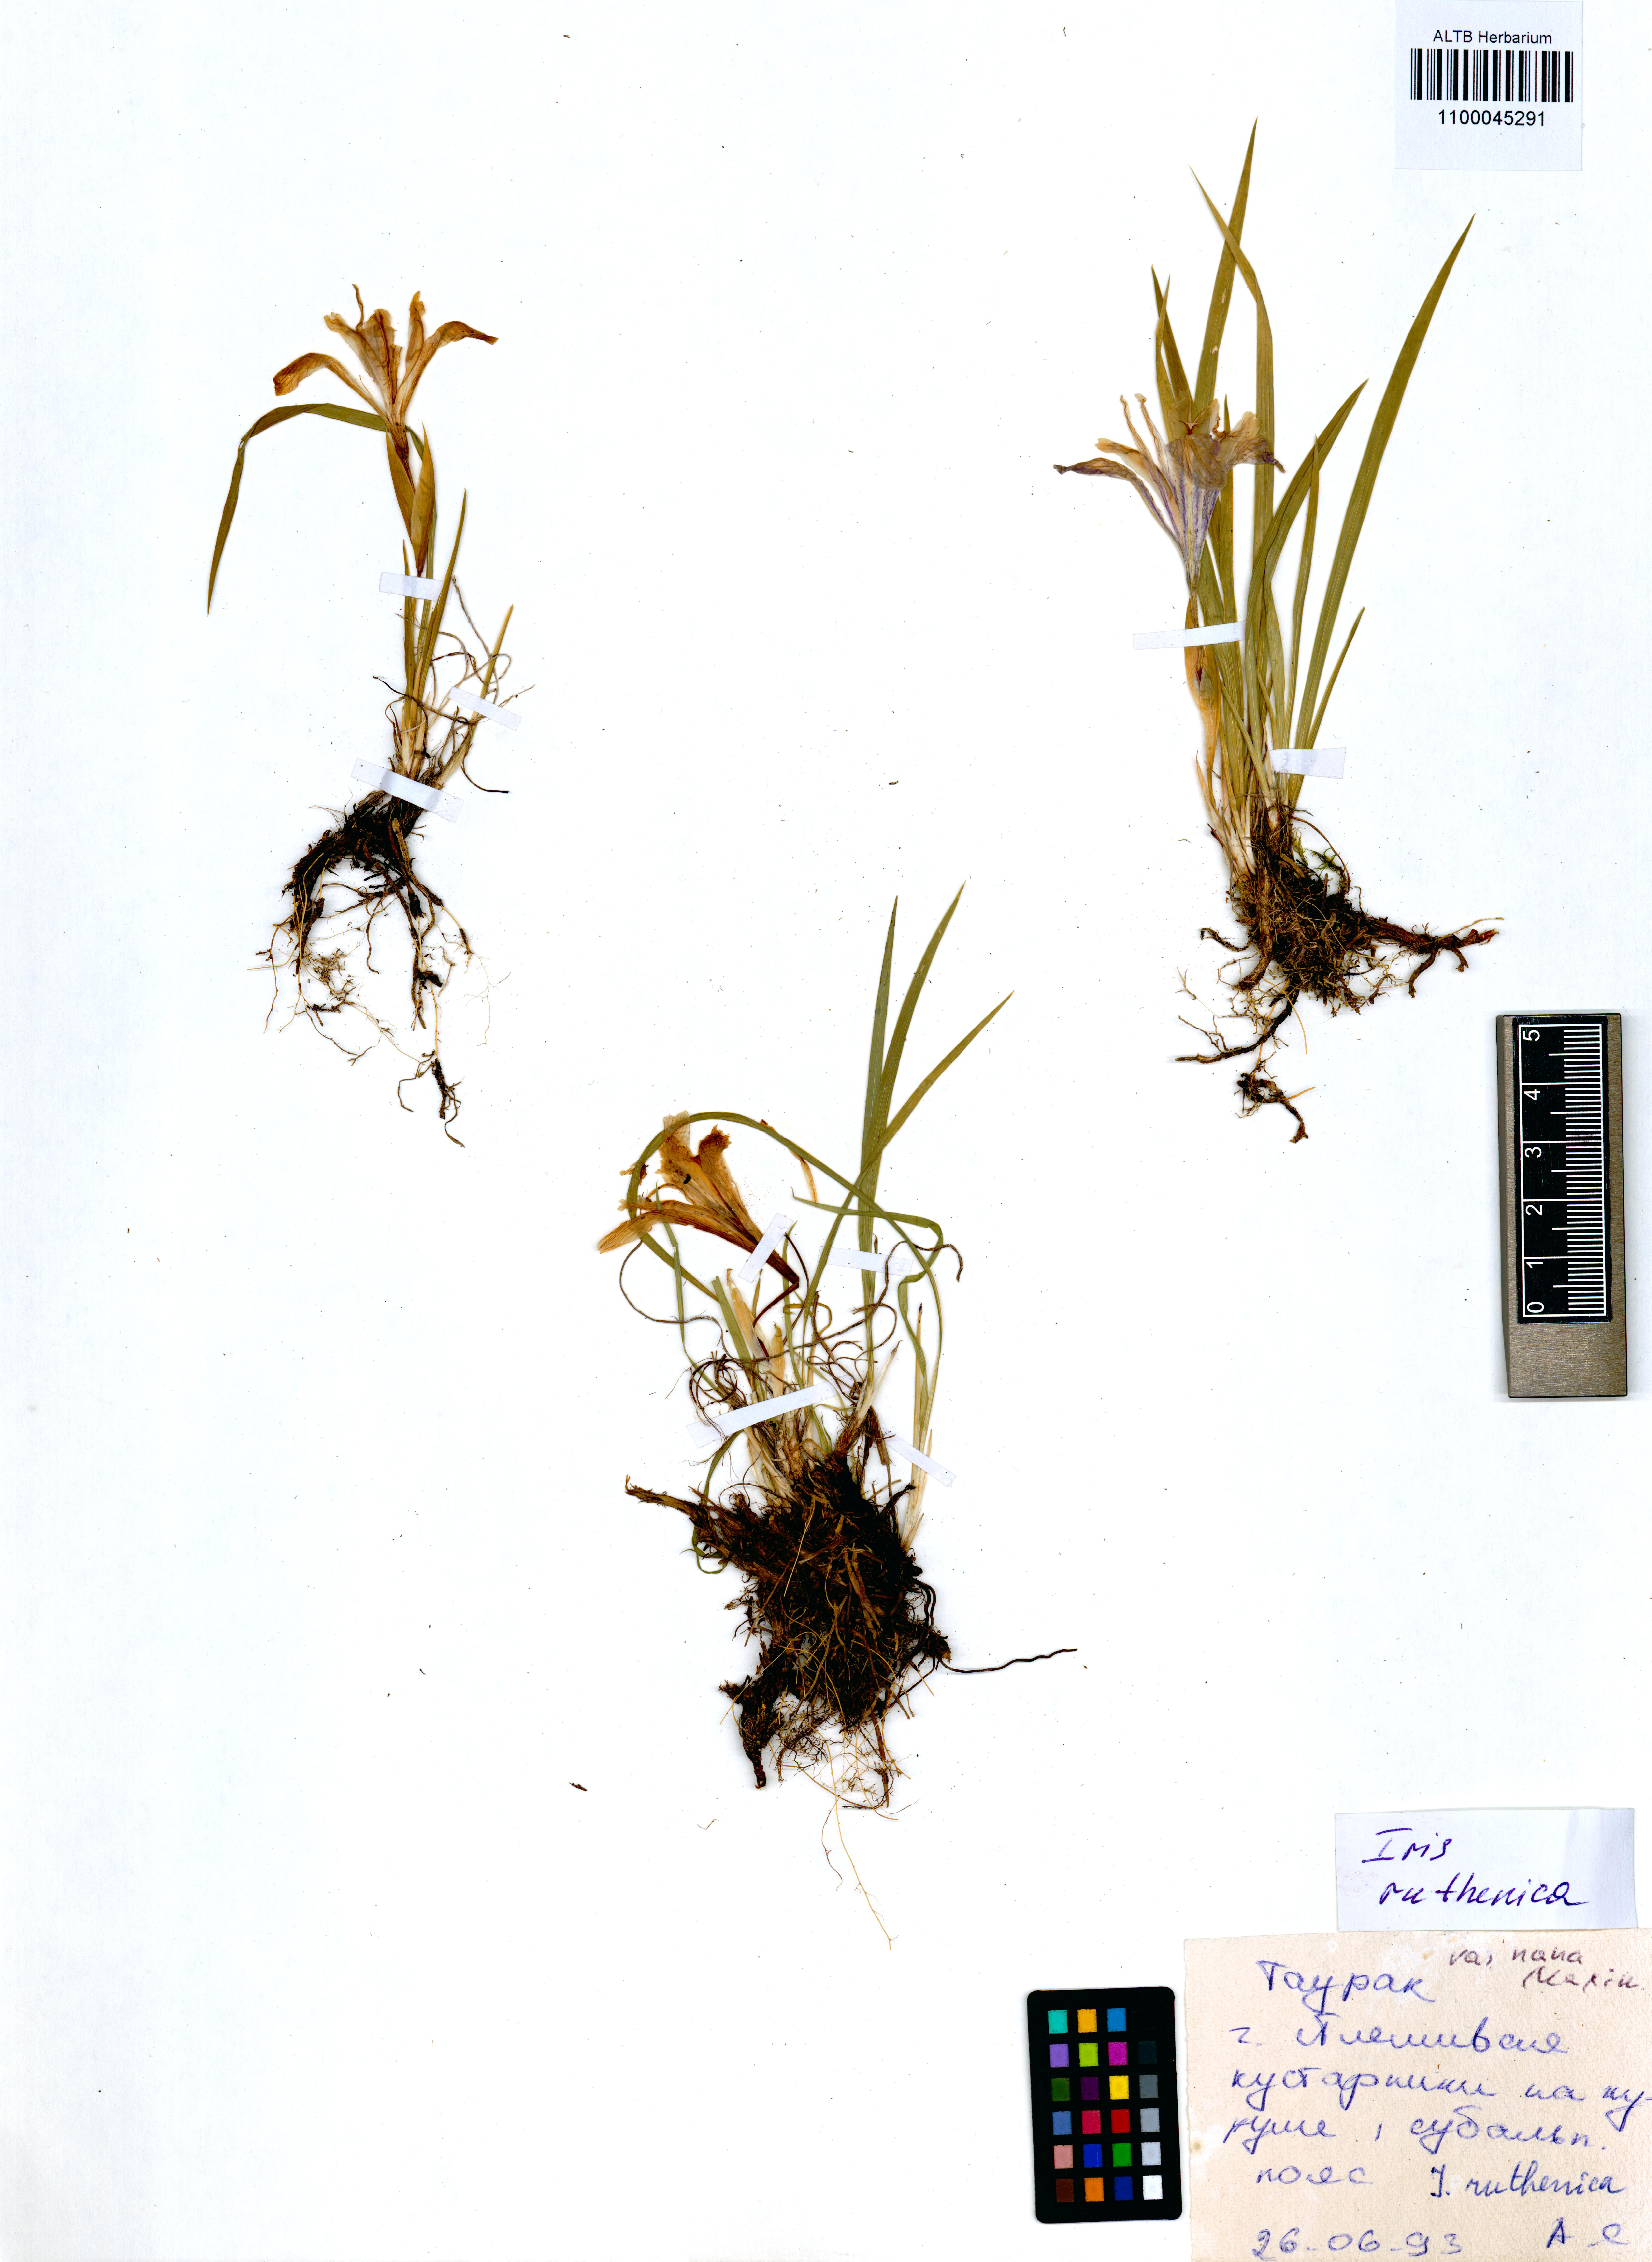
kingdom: Plantae
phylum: Tracheophyta
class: Liliopsida
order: Asparagales
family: Iridaceae
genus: Iris
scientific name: Iris ruthenica
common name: Purple-bract iris
